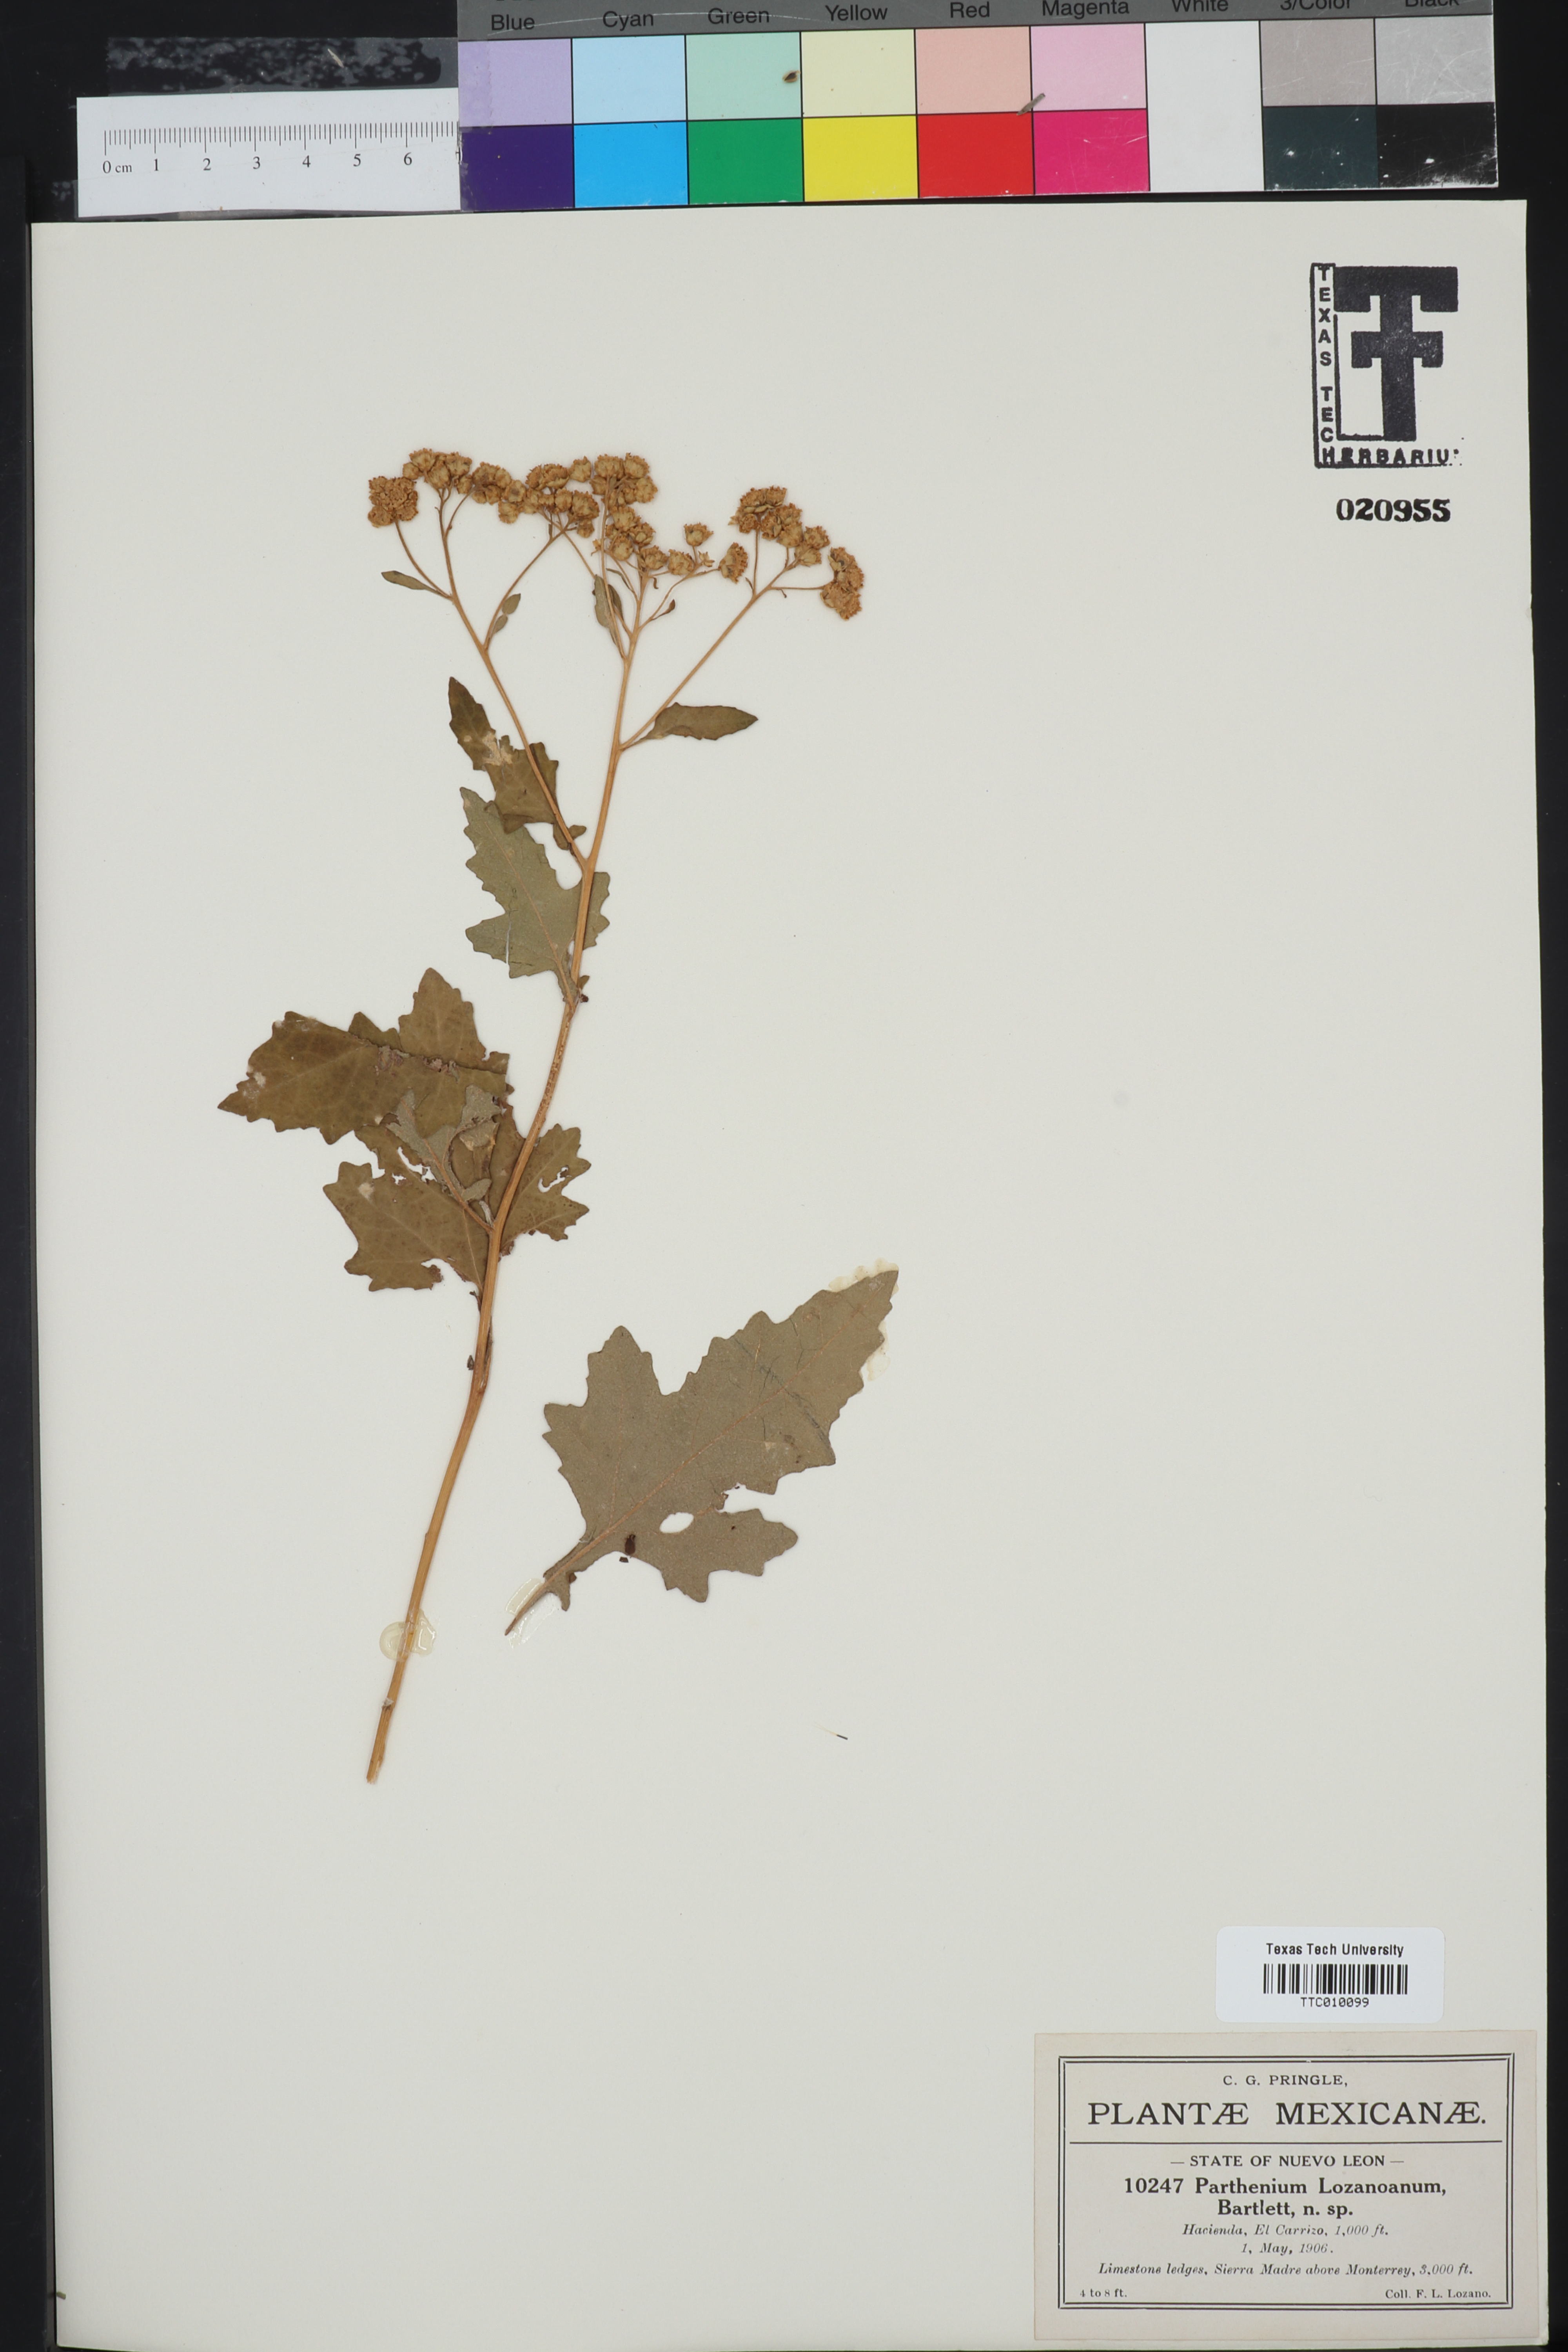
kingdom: Plantae
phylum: Tracheophyta
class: Magnoliopsida
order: Asterales
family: Asteraceae
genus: Parthenium
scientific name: Parthenium lozanoanum
